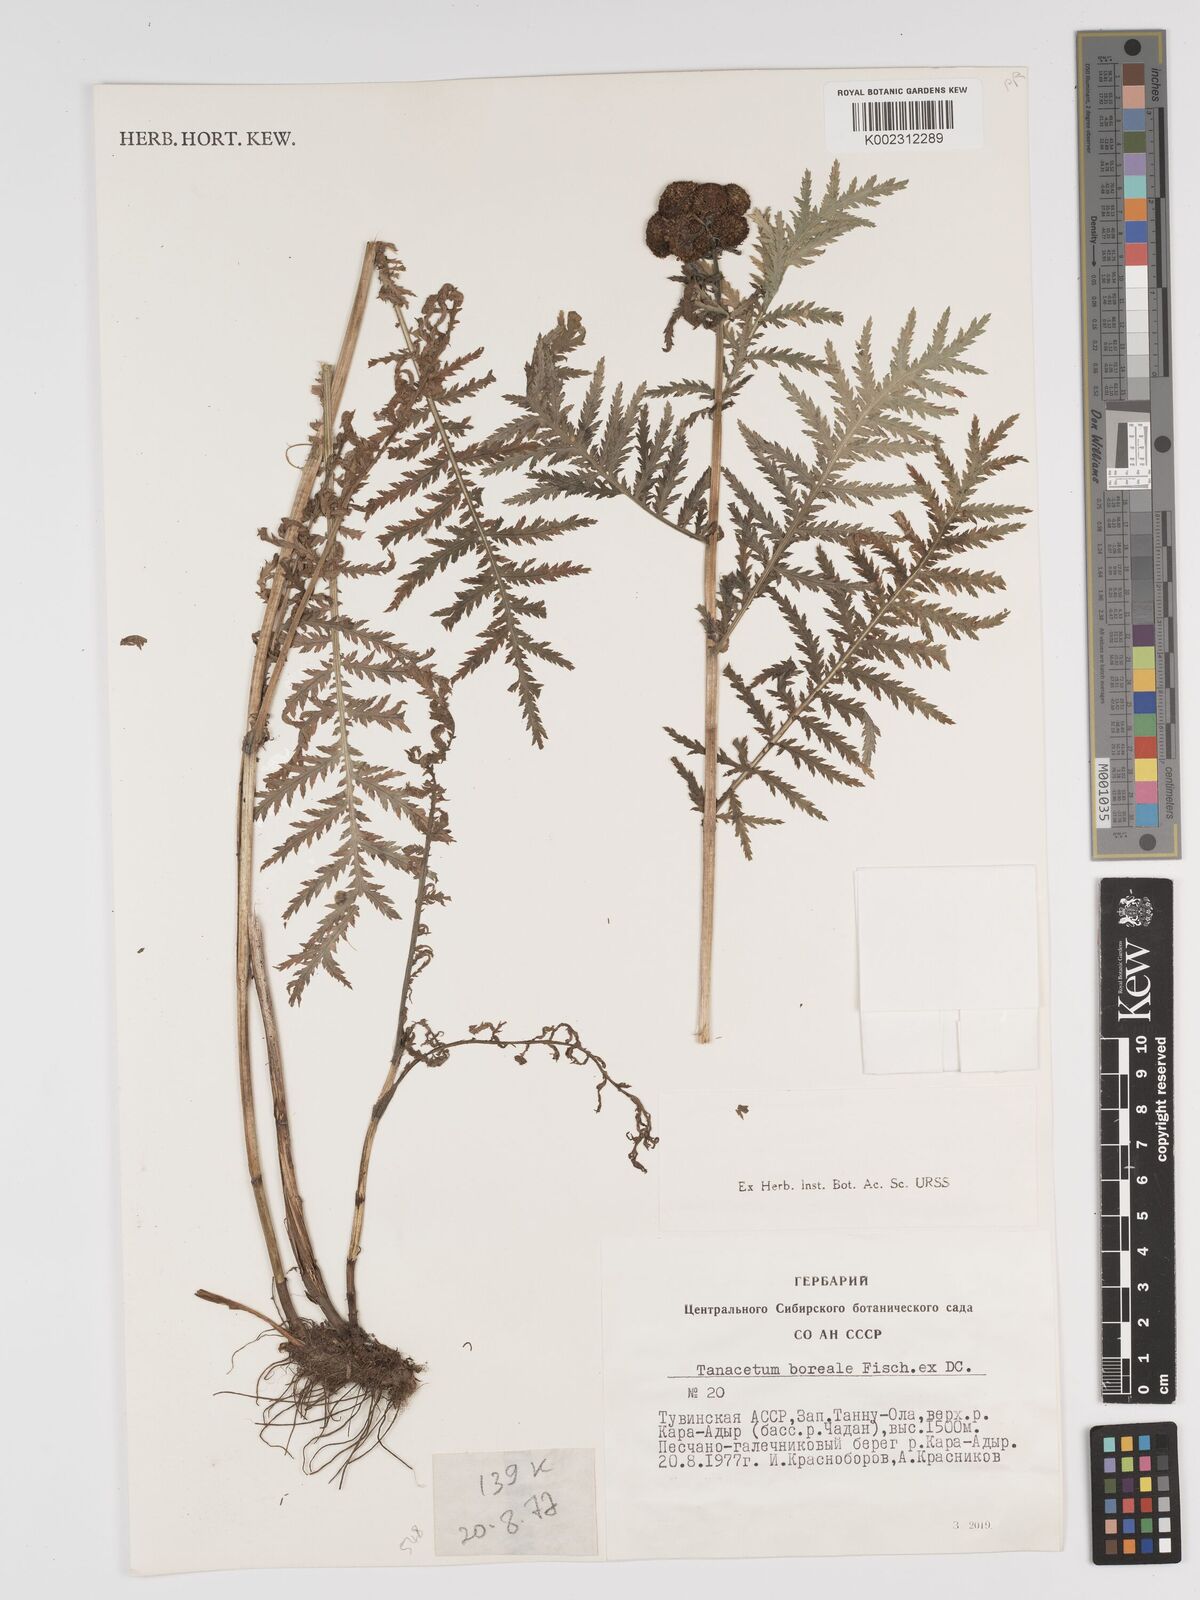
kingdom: Plantae
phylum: Tracheophyta
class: Magnoliopsida
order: Asterales
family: Asteraceae
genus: Tanacetum
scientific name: Tanacetum vulgare
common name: Common tansy
